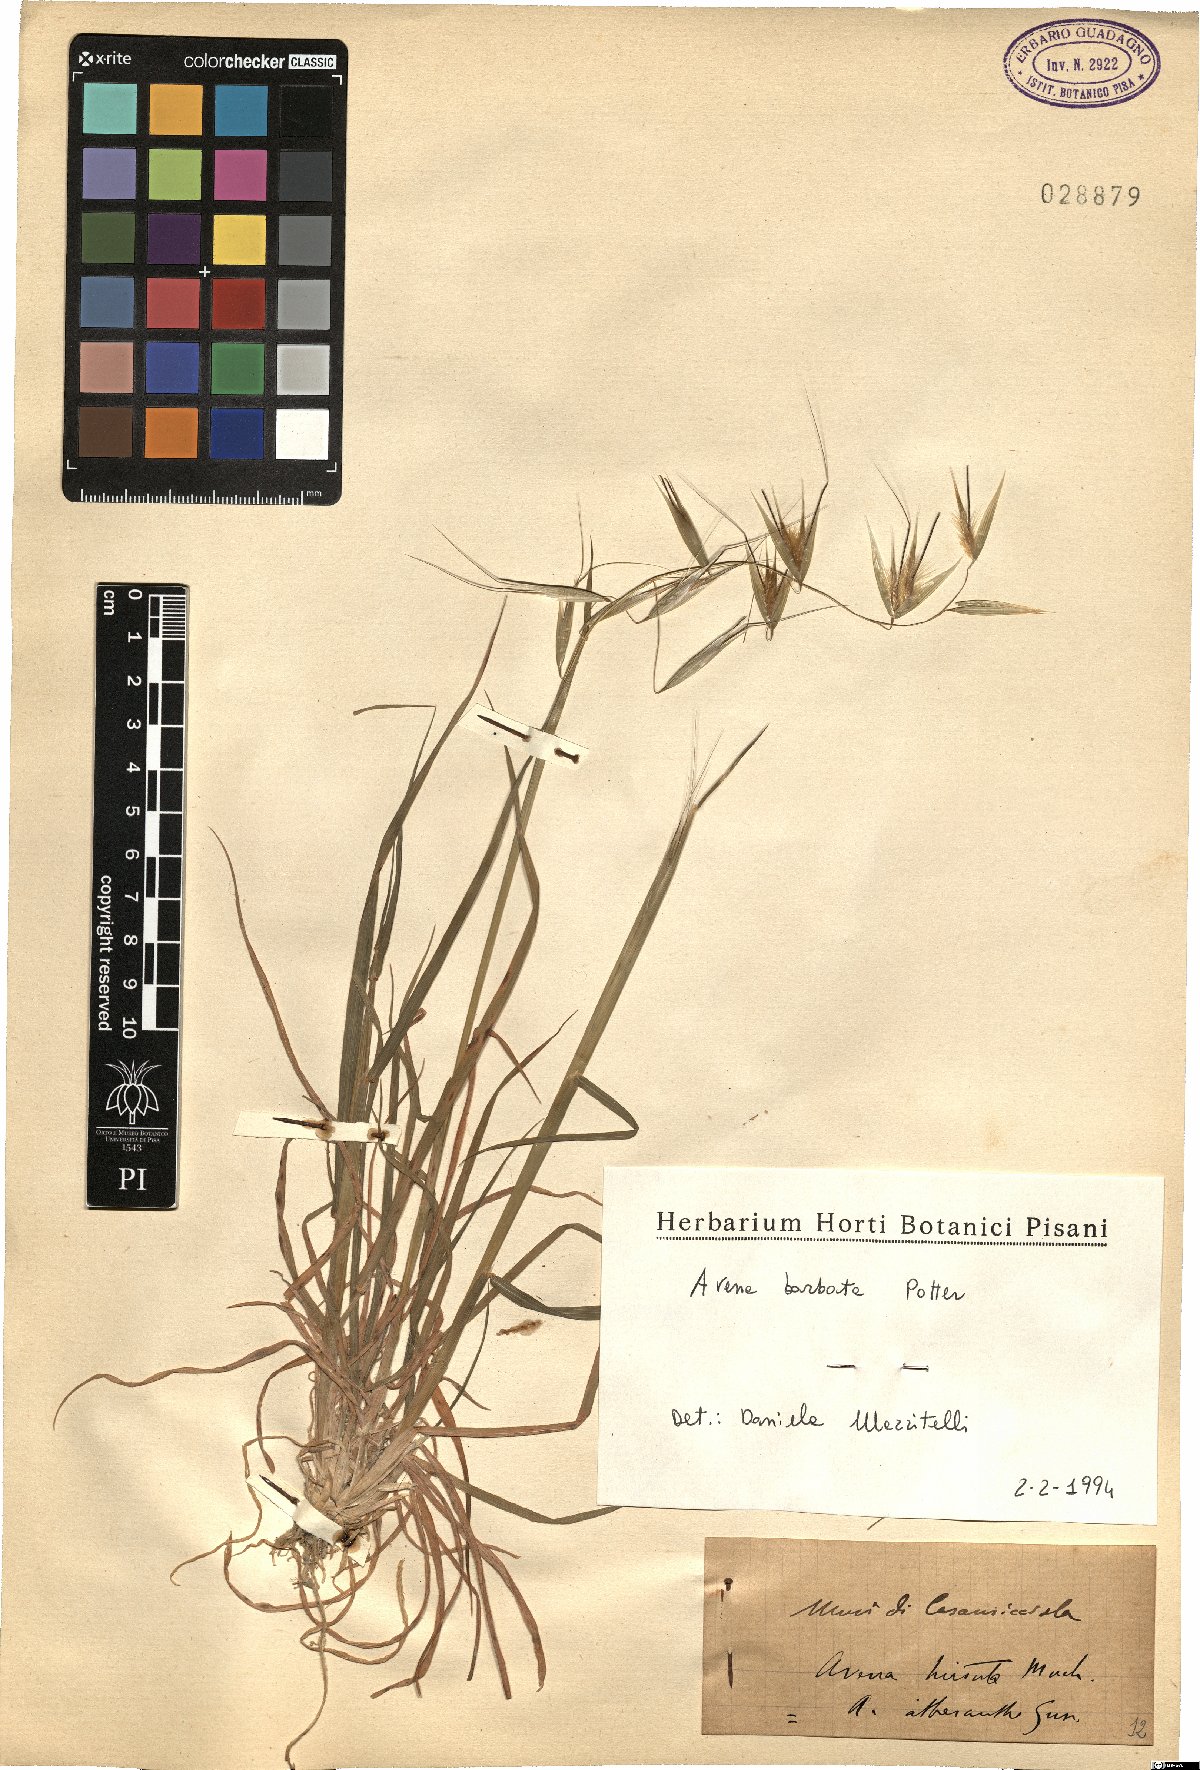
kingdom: Plantae
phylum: Tracheophyta
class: Liliopsida
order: Poales
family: Poaceae
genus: Avena
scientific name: Avena barbata
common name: Slender oat
